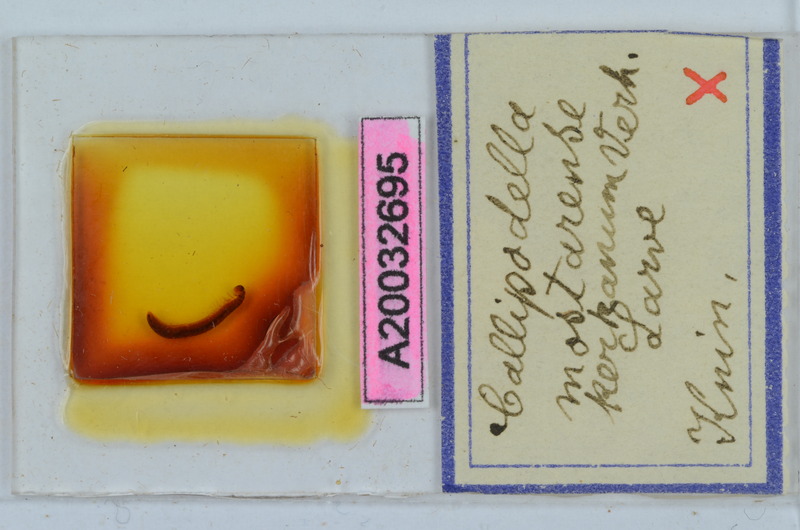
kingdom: Animalia
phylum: Arthropoda
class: Diplopoda
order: Callipodida
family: Schizopetalidae
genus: Callipodella
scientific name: Callipodella mostarensis
